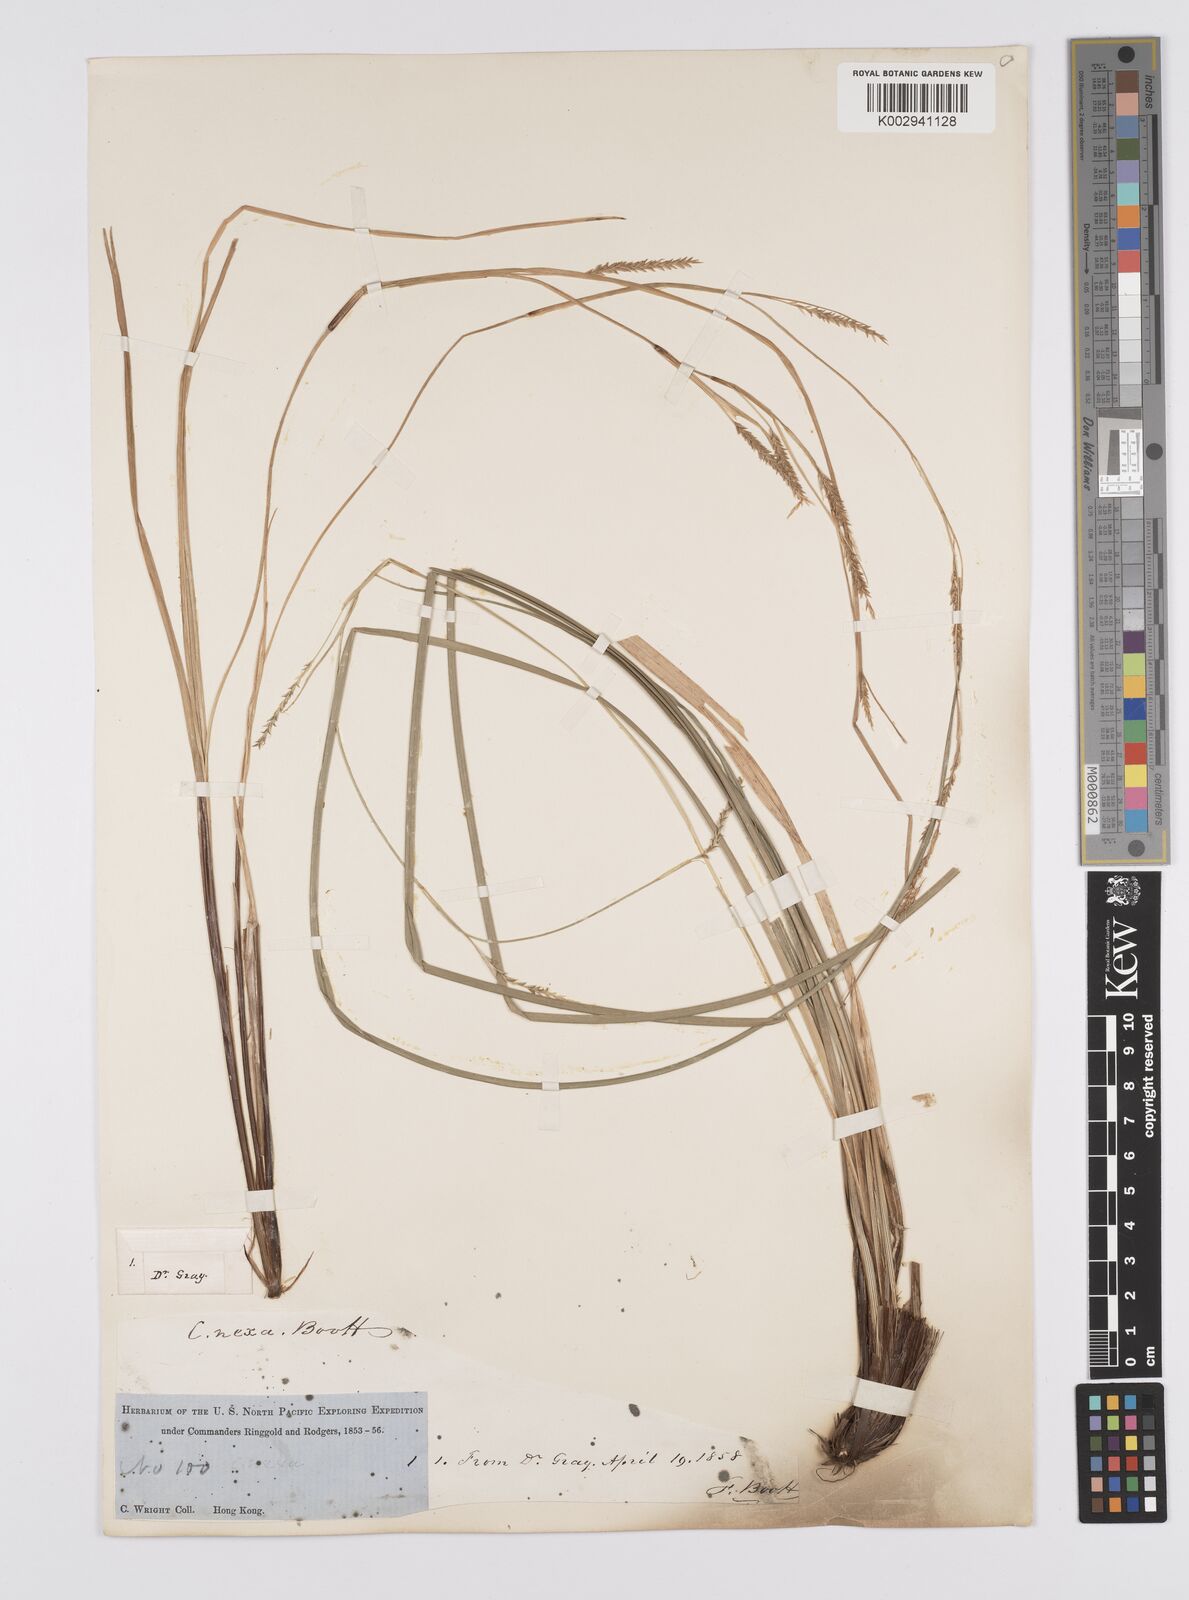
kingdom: Plantae
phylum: Tracheophyta
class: Liliopsida
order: Poales
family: Cyperaceae
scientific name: Cyperaceae
